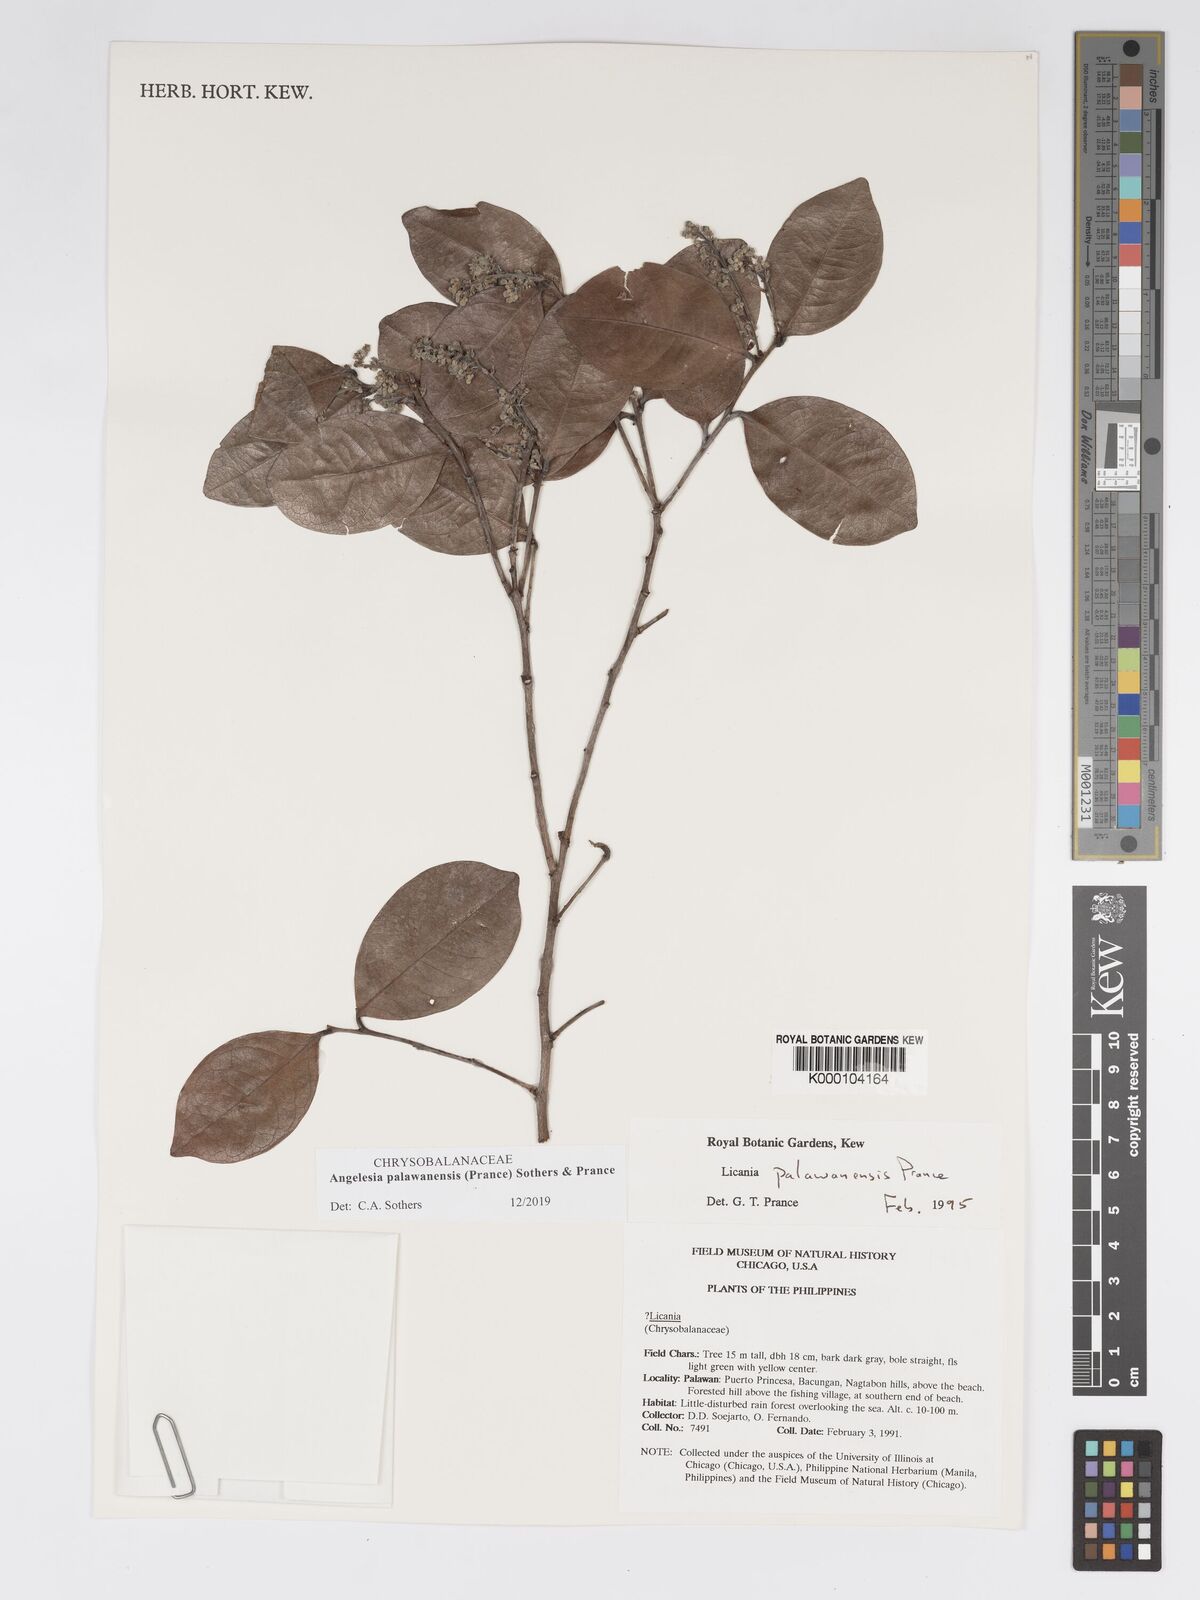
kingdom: Plantae
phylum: Tracheophyta
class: Magnoliopsida
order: Malpighiales
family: Chrysobalanaceae
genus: Angelesia
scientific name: Angelesia palawanensis
